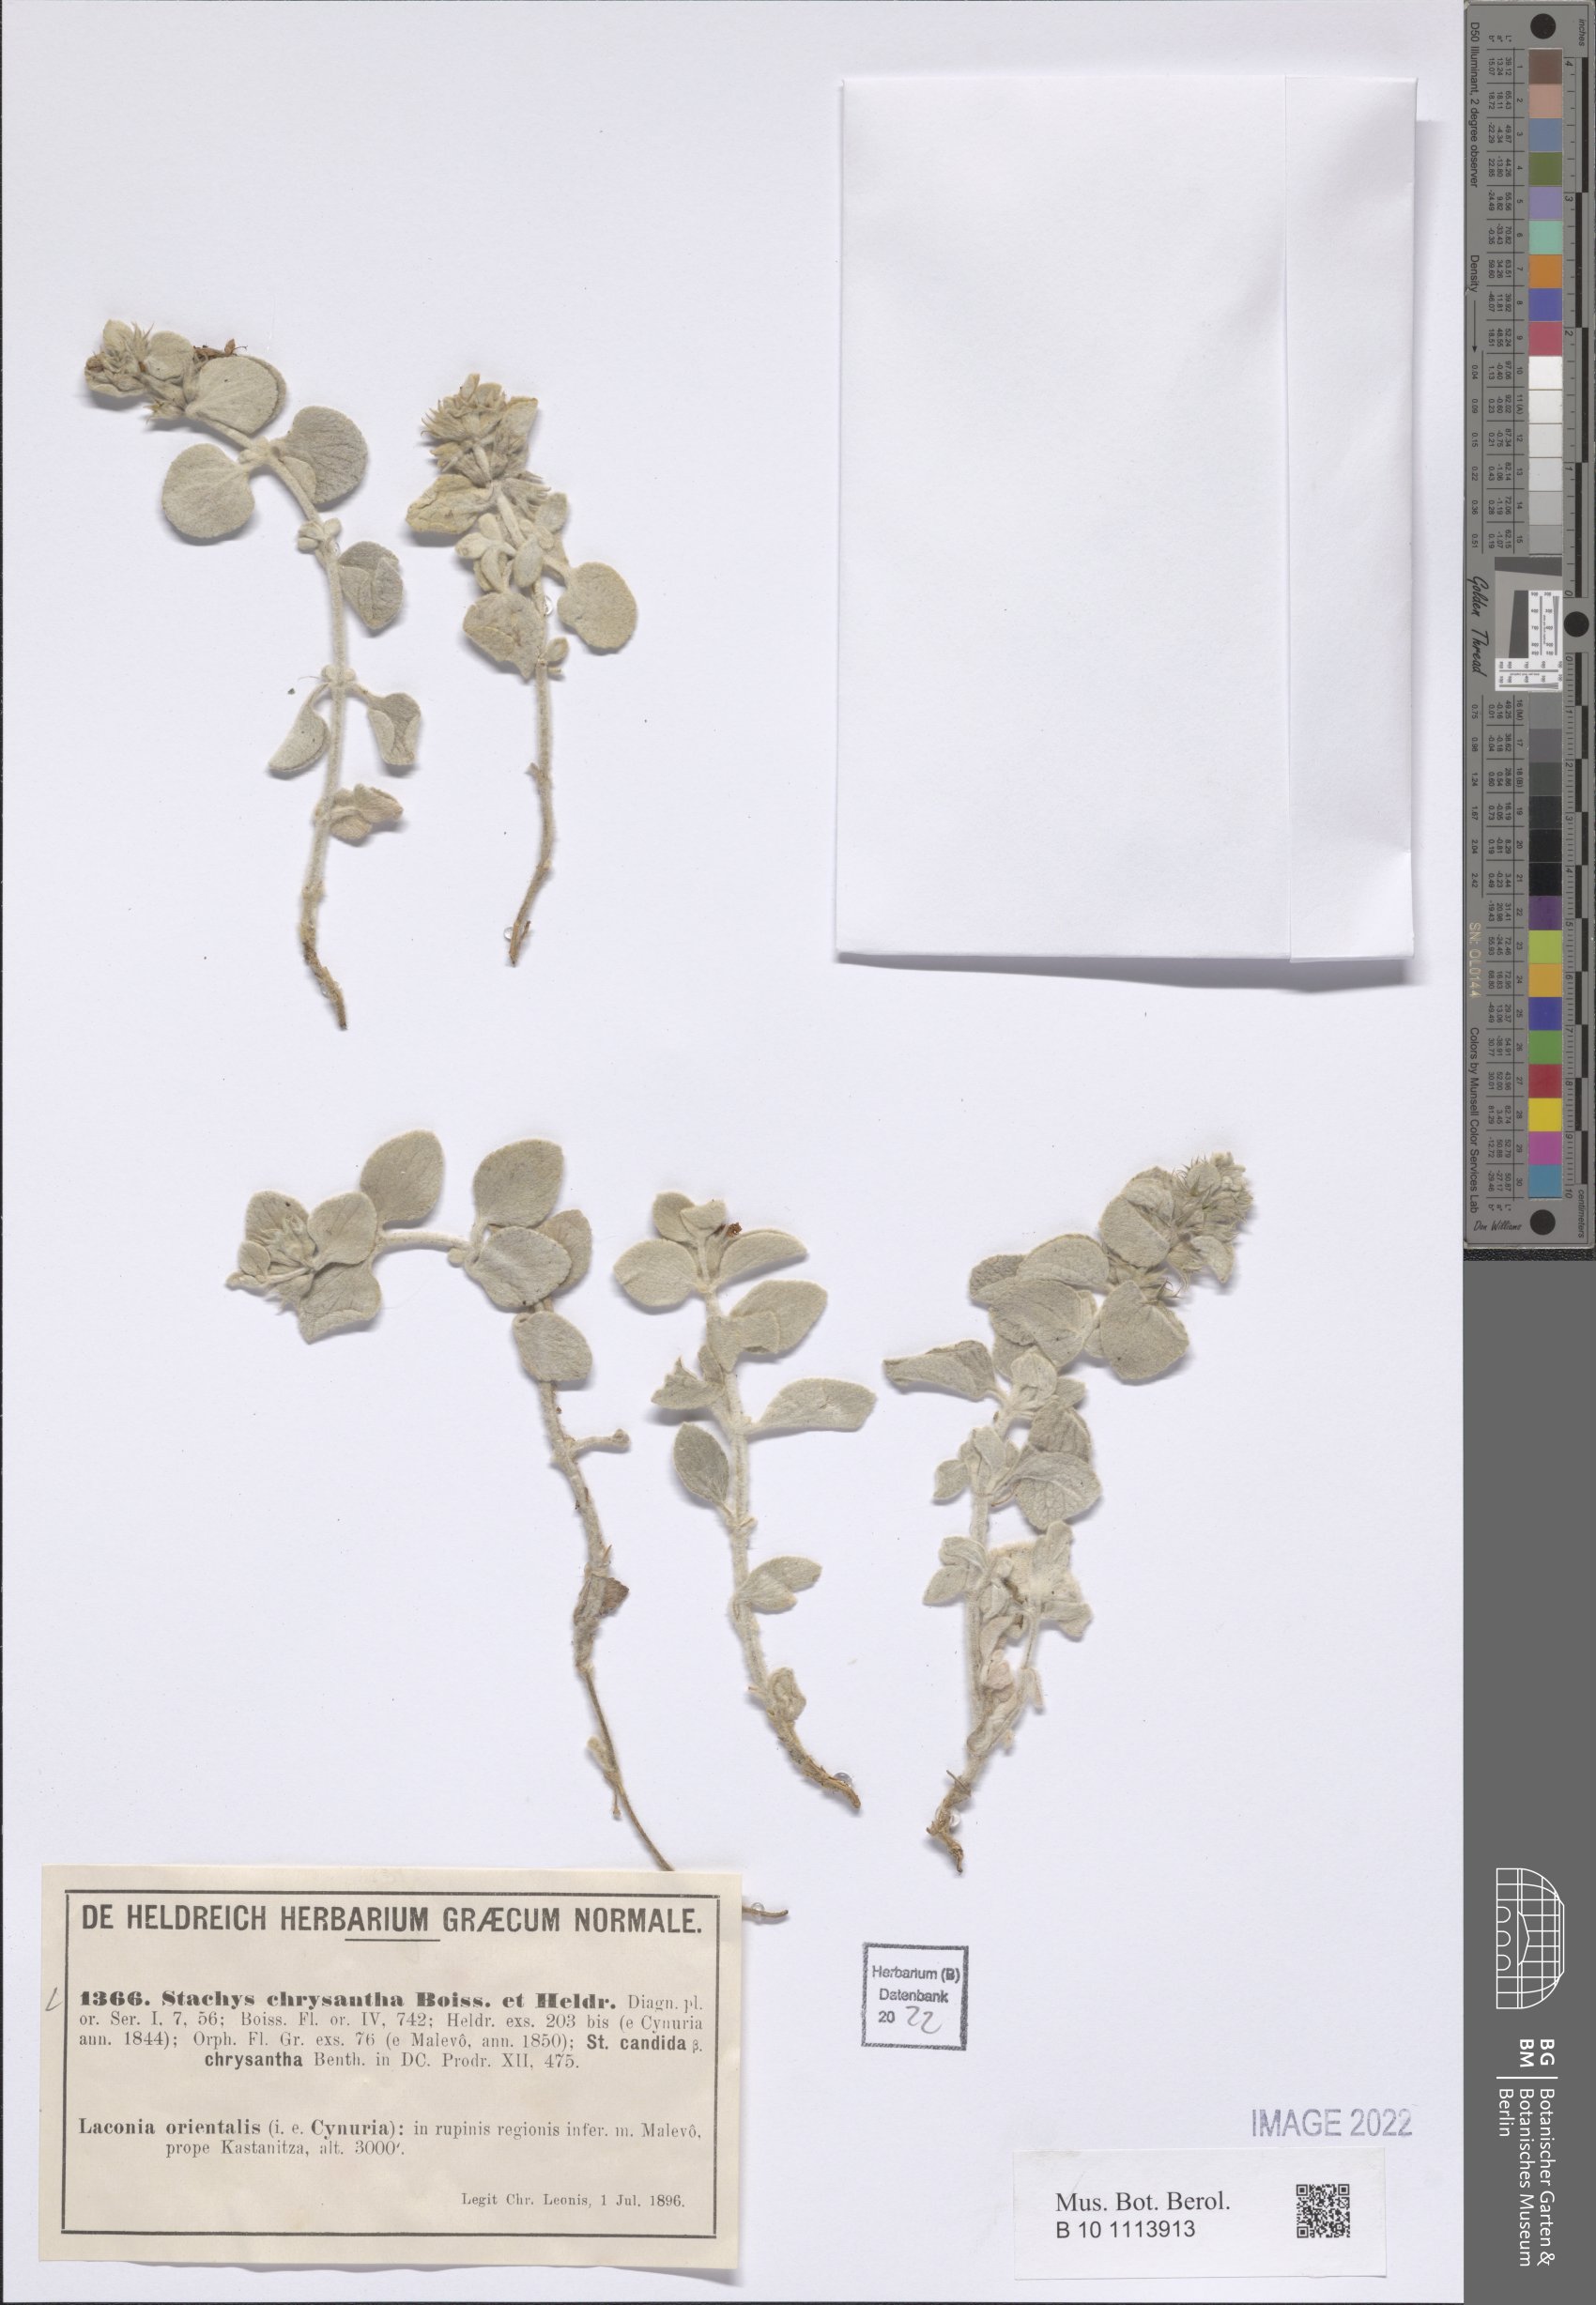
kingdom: Plantae
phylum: Tracheophyta
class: Magnoliopsida
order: Lamiales
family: Lamiaceae
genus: Stachys
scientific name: Stachys chrysantha
